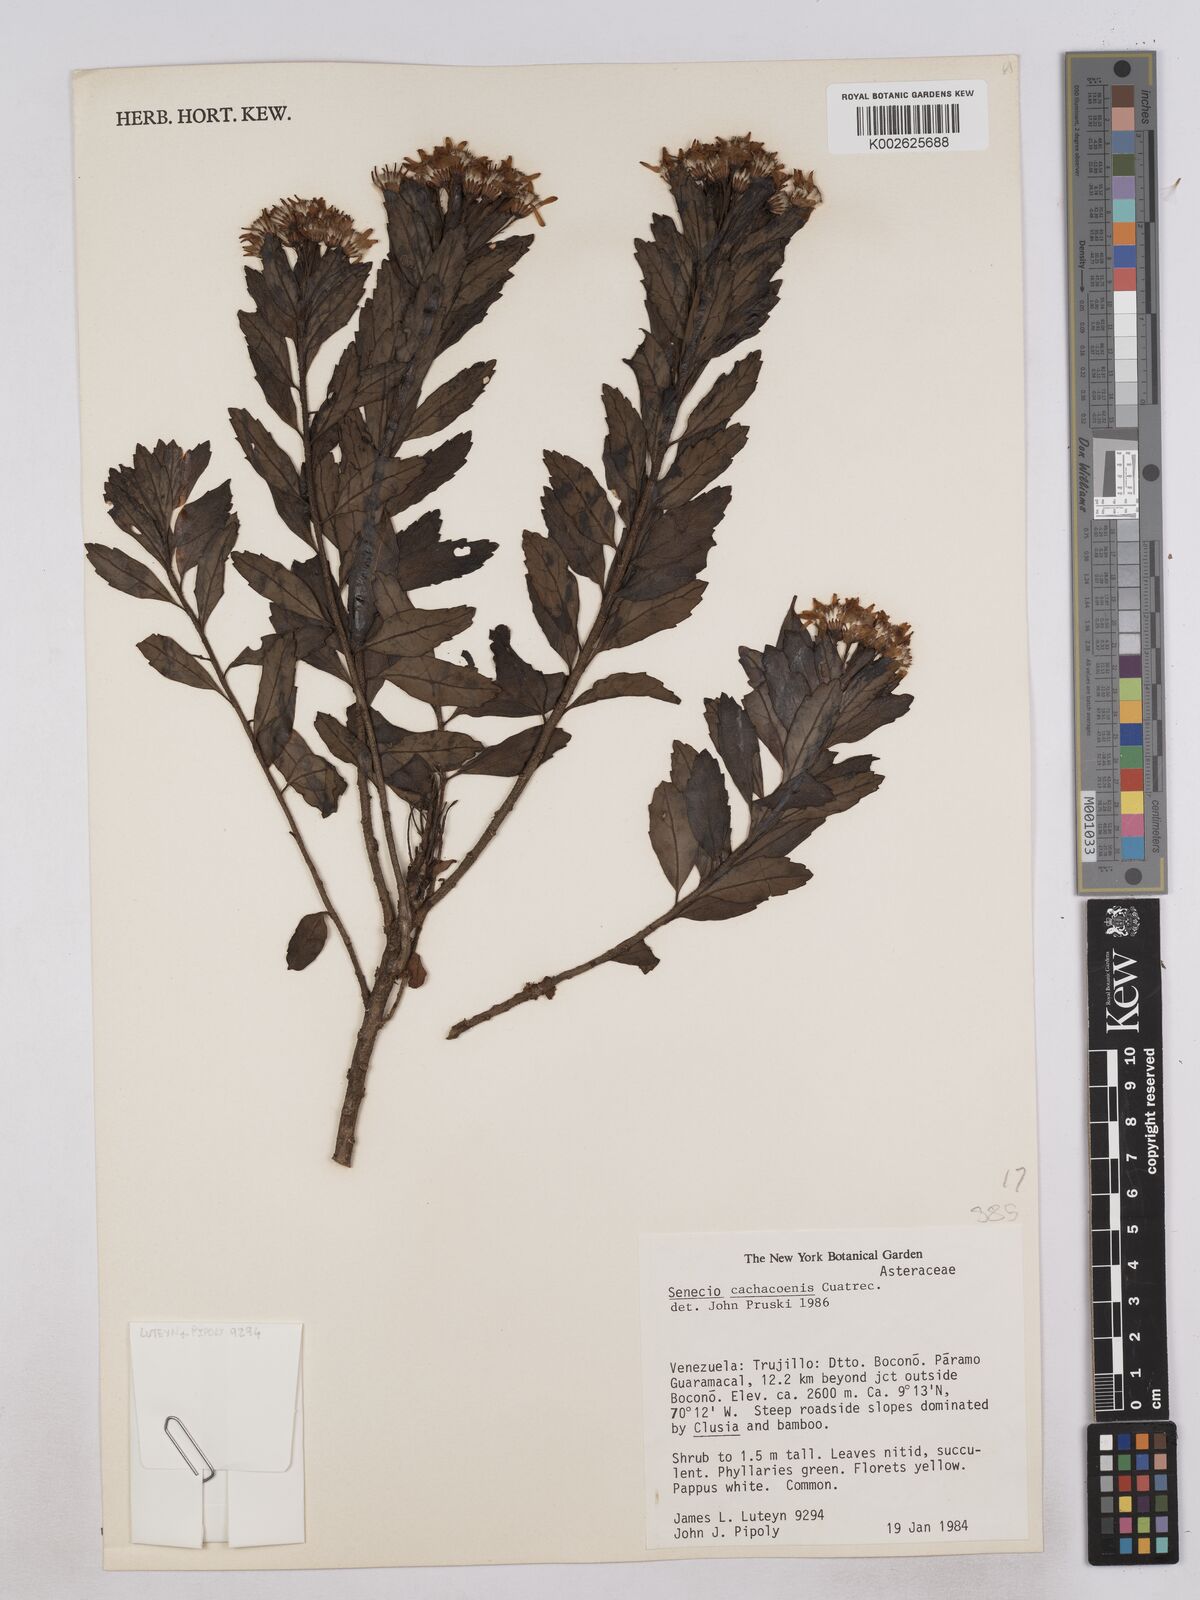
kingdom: Plantae
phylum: Tracheophyta
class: Magnoliopsida
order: Asterales
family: Asteraceae
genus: Monticalia
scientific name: Monticalia cachacoensis
